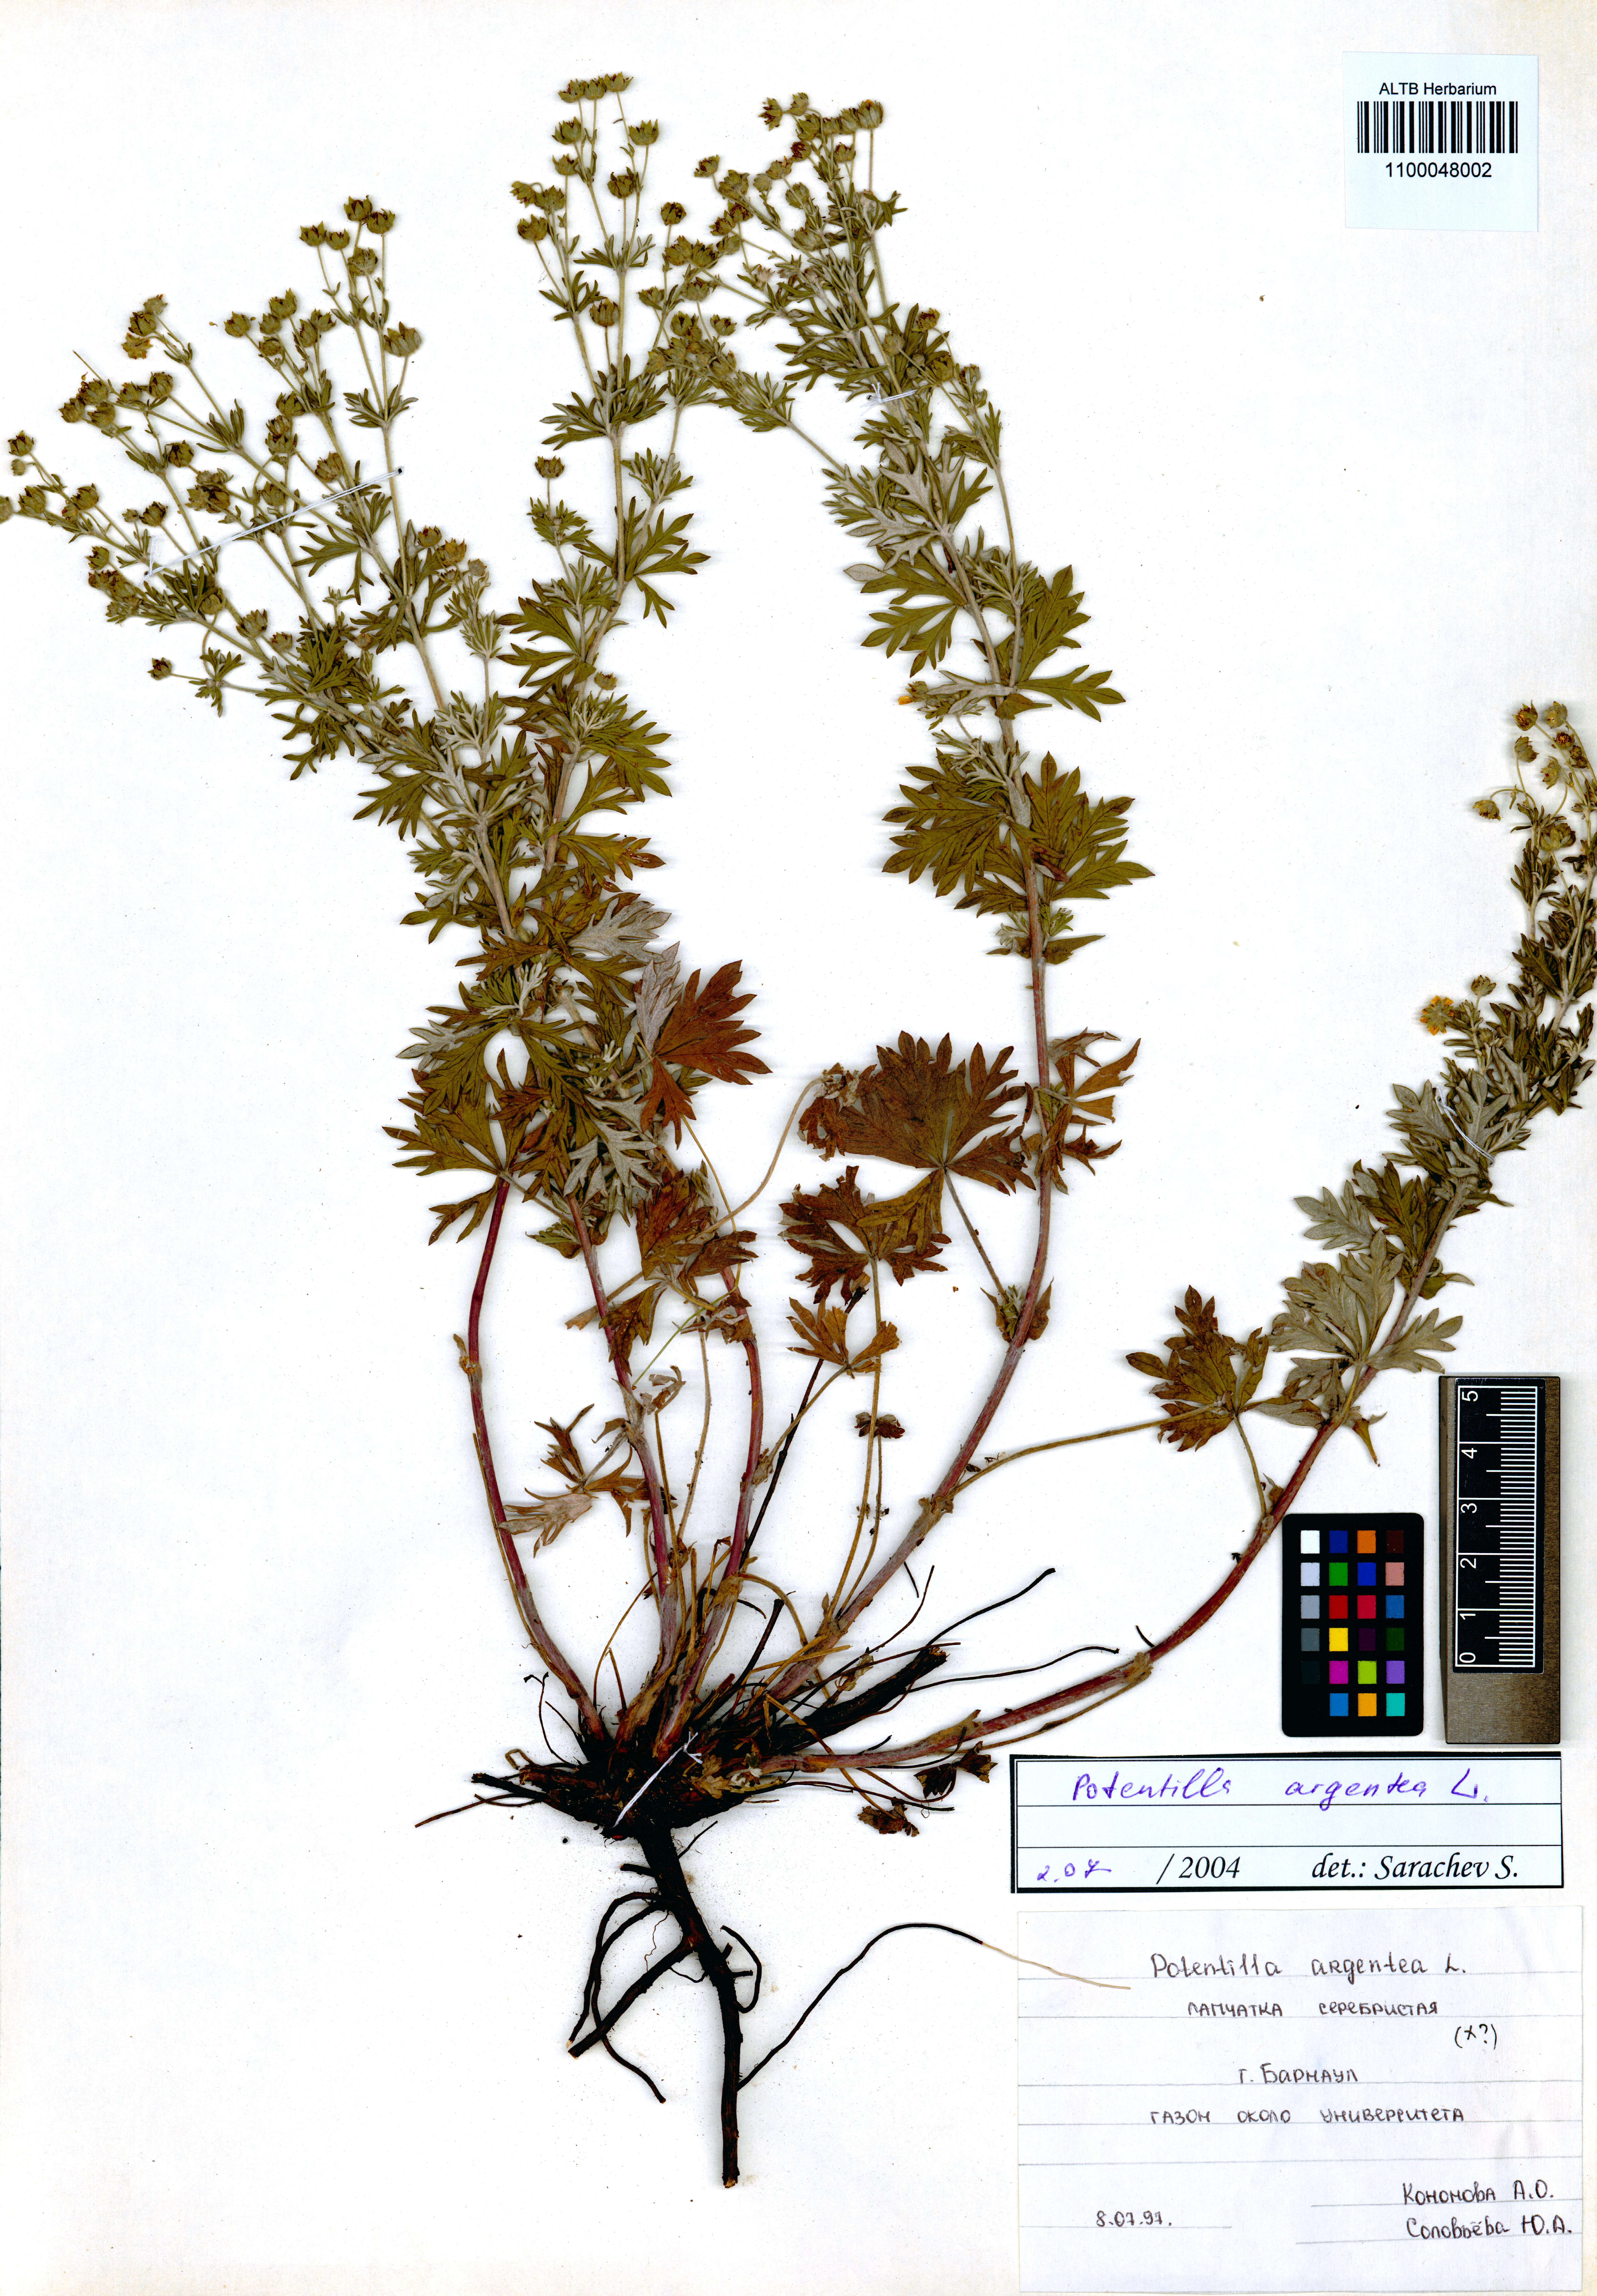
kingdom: Plantae
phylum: Tracheophyta
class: Magnoliopsida
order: Rosales
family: Rosaceae
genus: Potentilla
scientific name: Potentilla argentea
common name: Hoary cinquefoil
